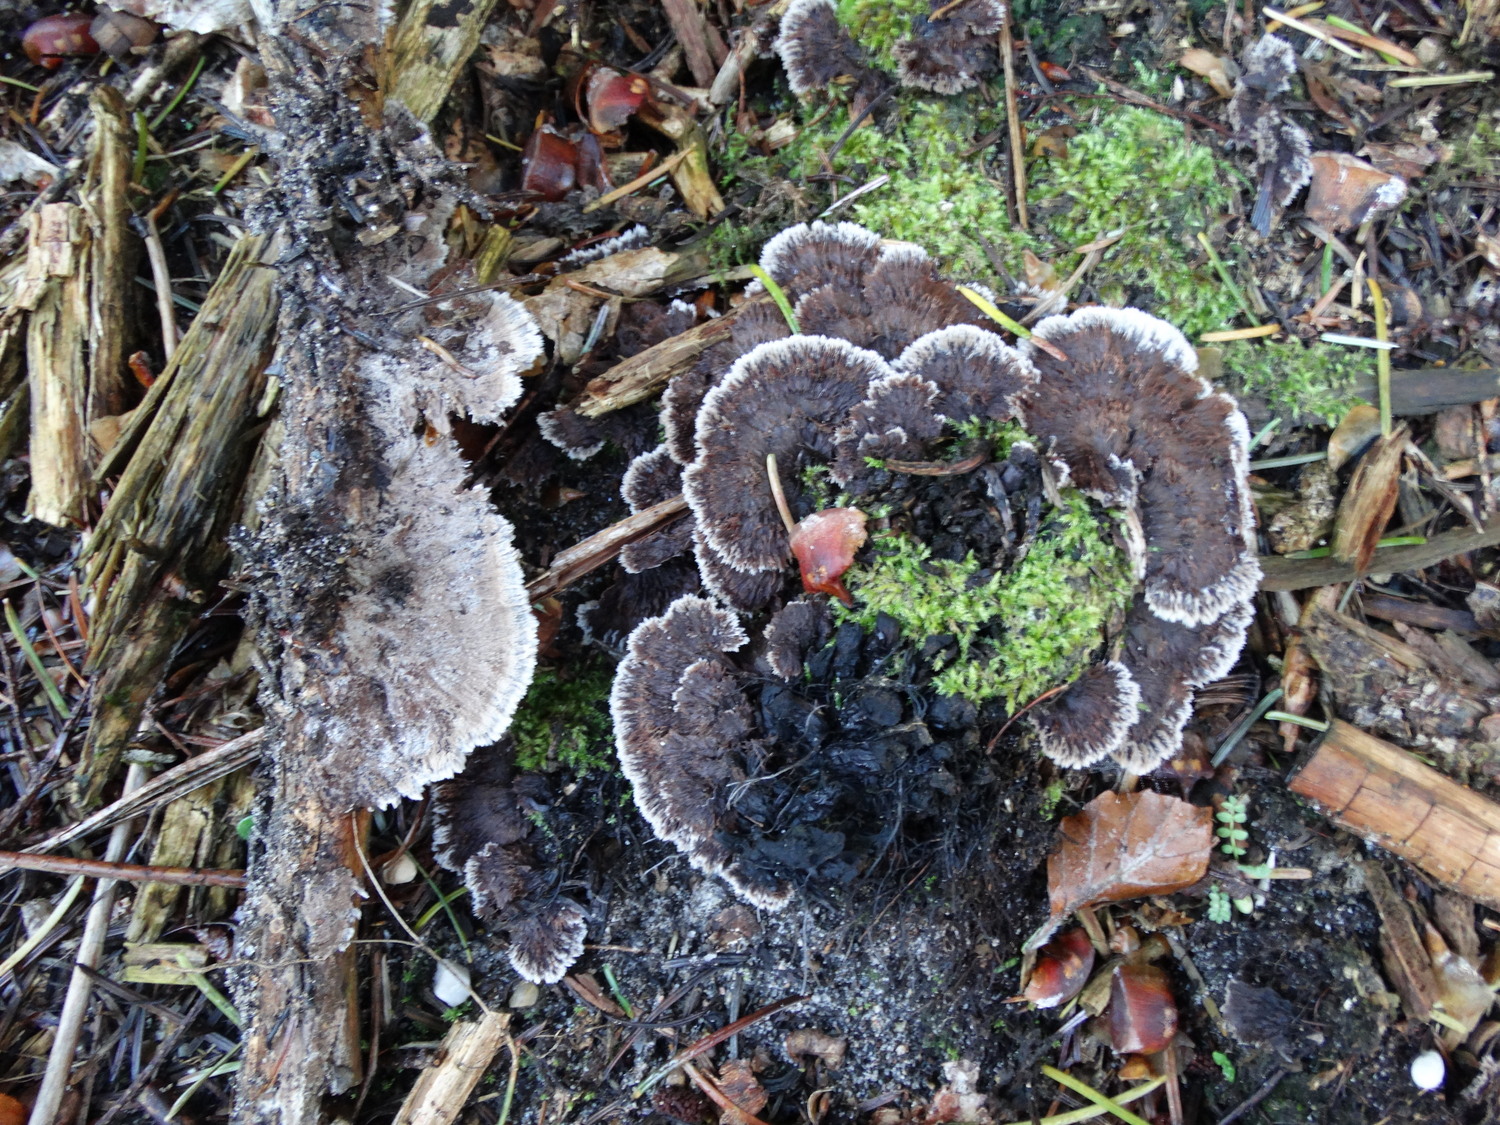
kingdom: Fungi
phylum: Basidiomycota
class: Agaricomycetes
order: Thelephorales
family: Thelephoraceae
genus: Thelephora
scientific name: Thelephora terrestris
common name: fliget frynsesvamp
